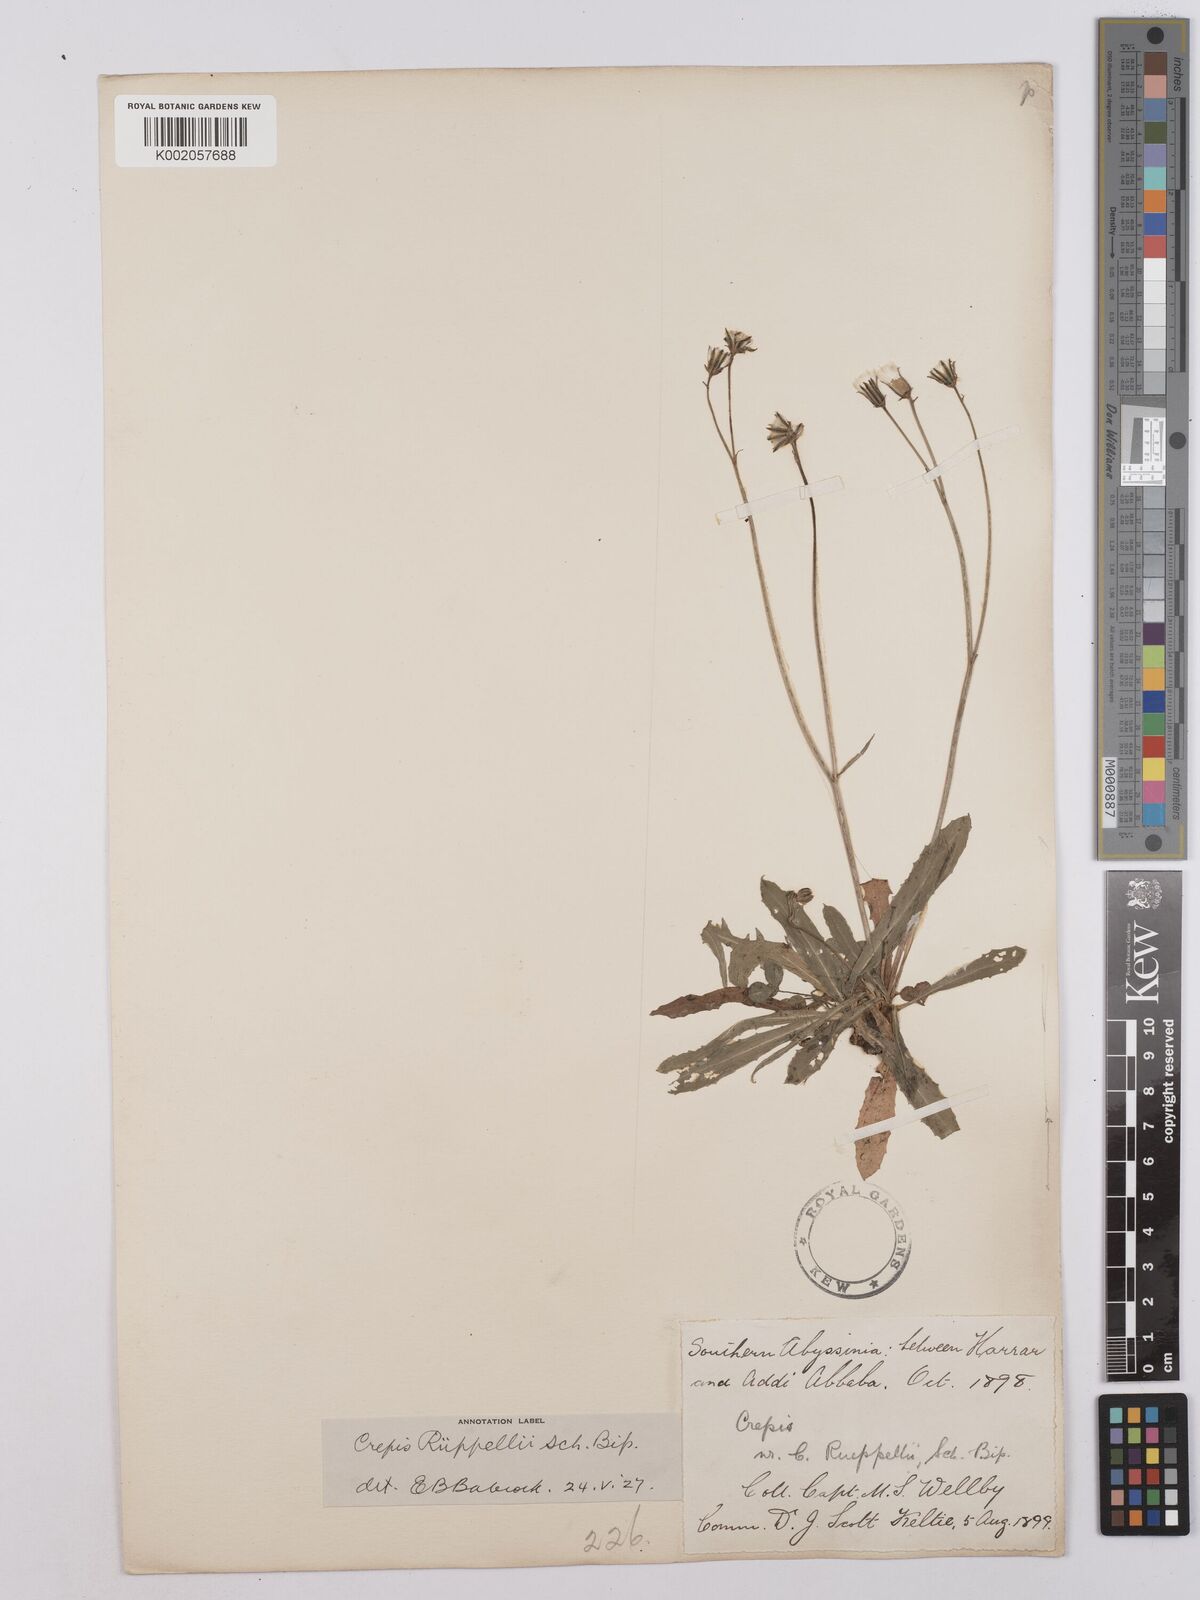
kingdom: Plantae
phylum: Tracheophyta
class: Magnoliopsida
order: Asterales
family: Asteraceae
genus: Crepis
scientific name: Crepis rueppellii
